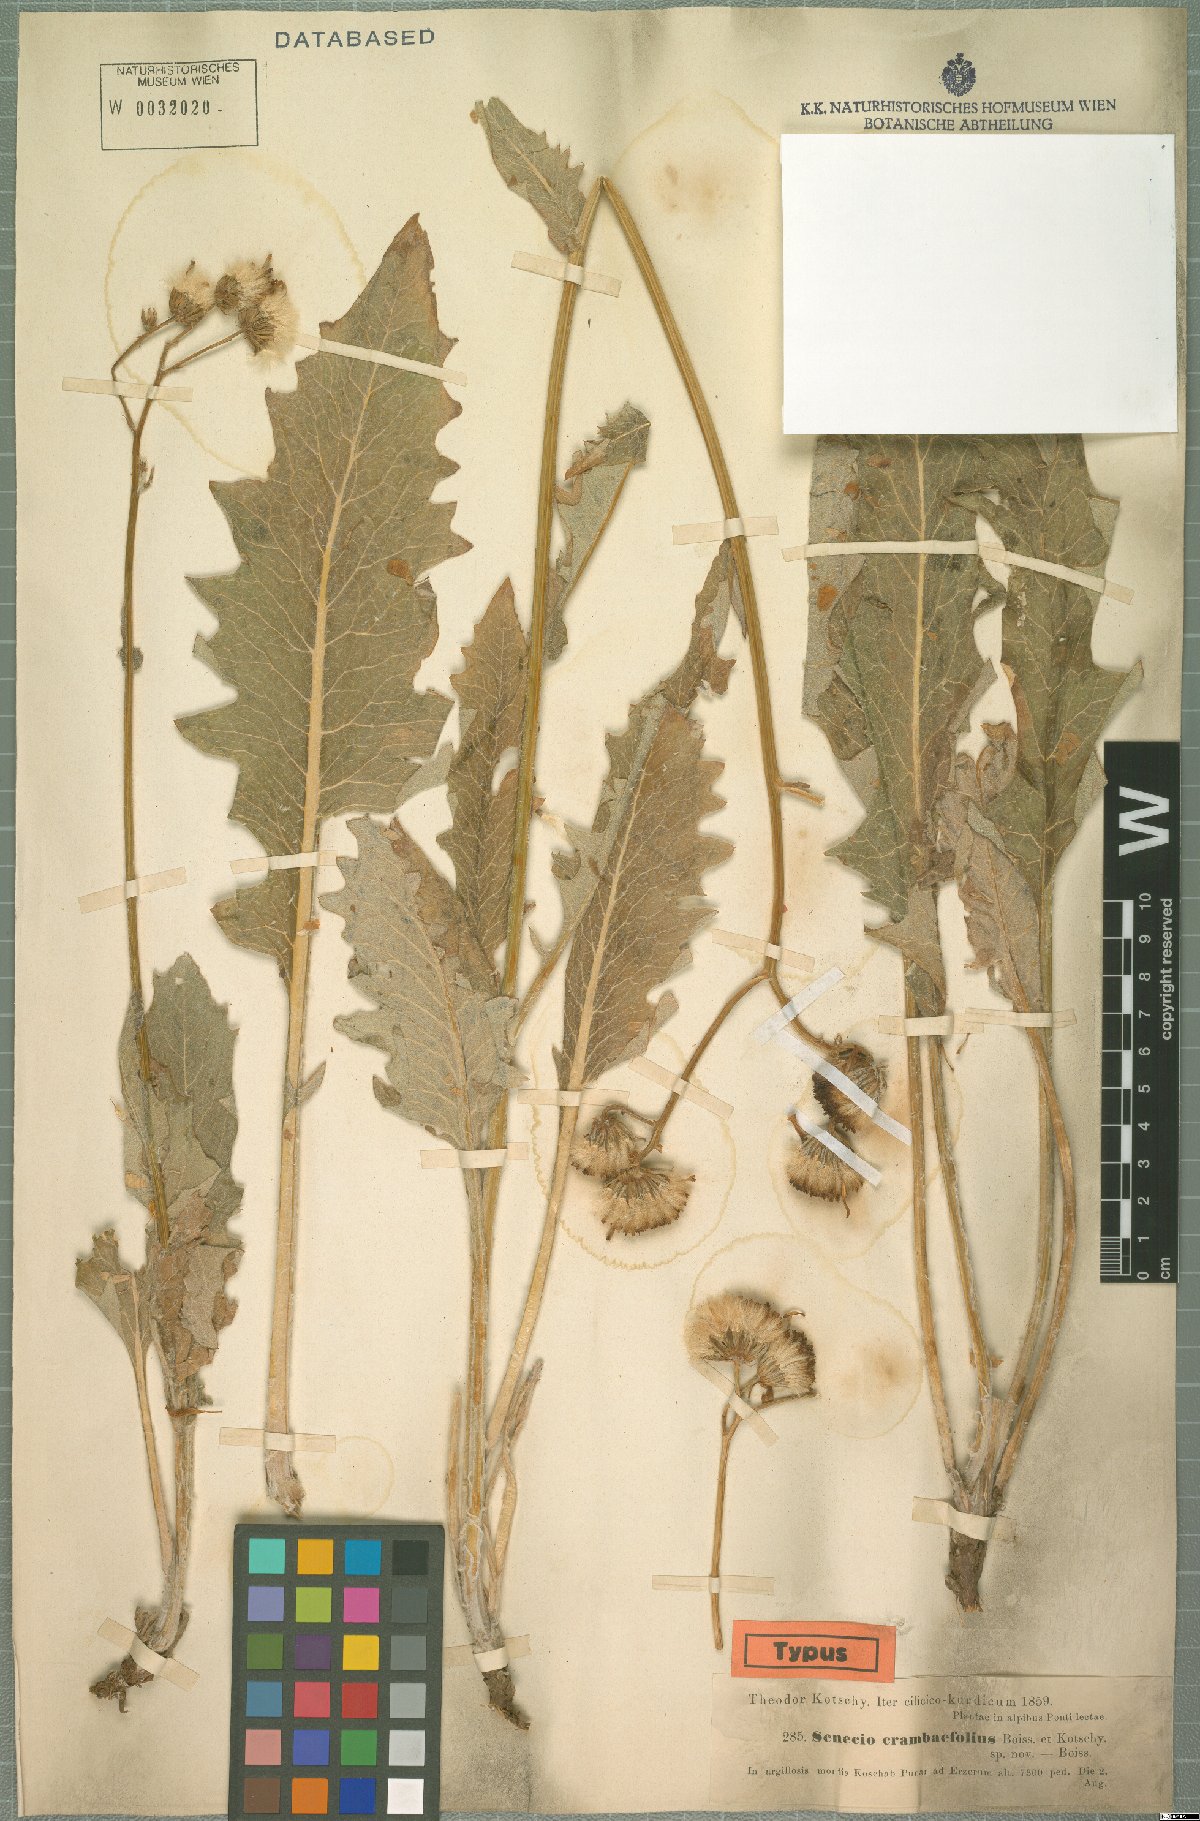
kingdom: Plantae
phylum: Tracheophyta
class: Magnoliopsida
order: Asterales
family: Asteraceae
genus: Turanecio
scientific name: Turanecio eriospermus
